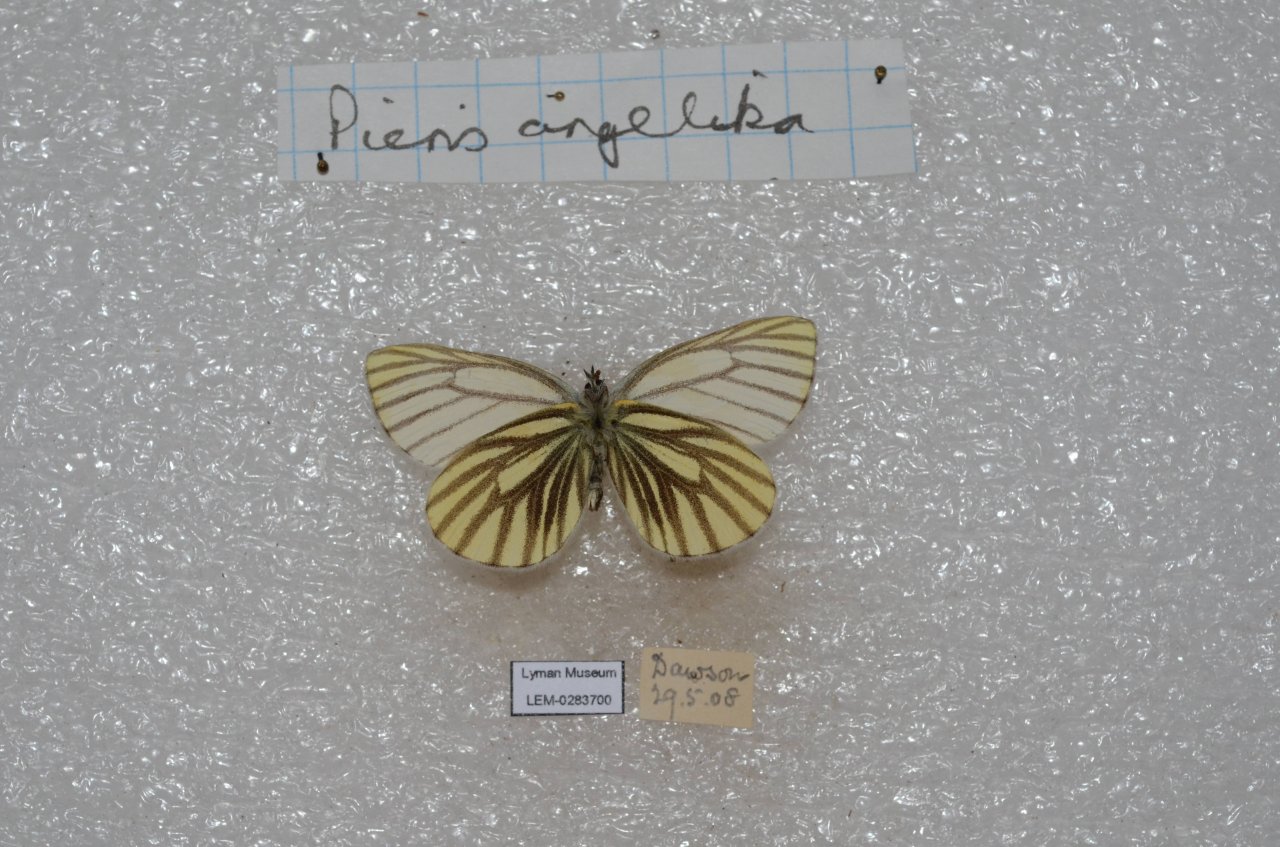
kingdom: Animalia
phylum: Arthropoda
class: Insecta
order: Lepidoptera
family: Pieridae
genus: Pieris
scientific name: Pieris angelika
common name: Arctic White
